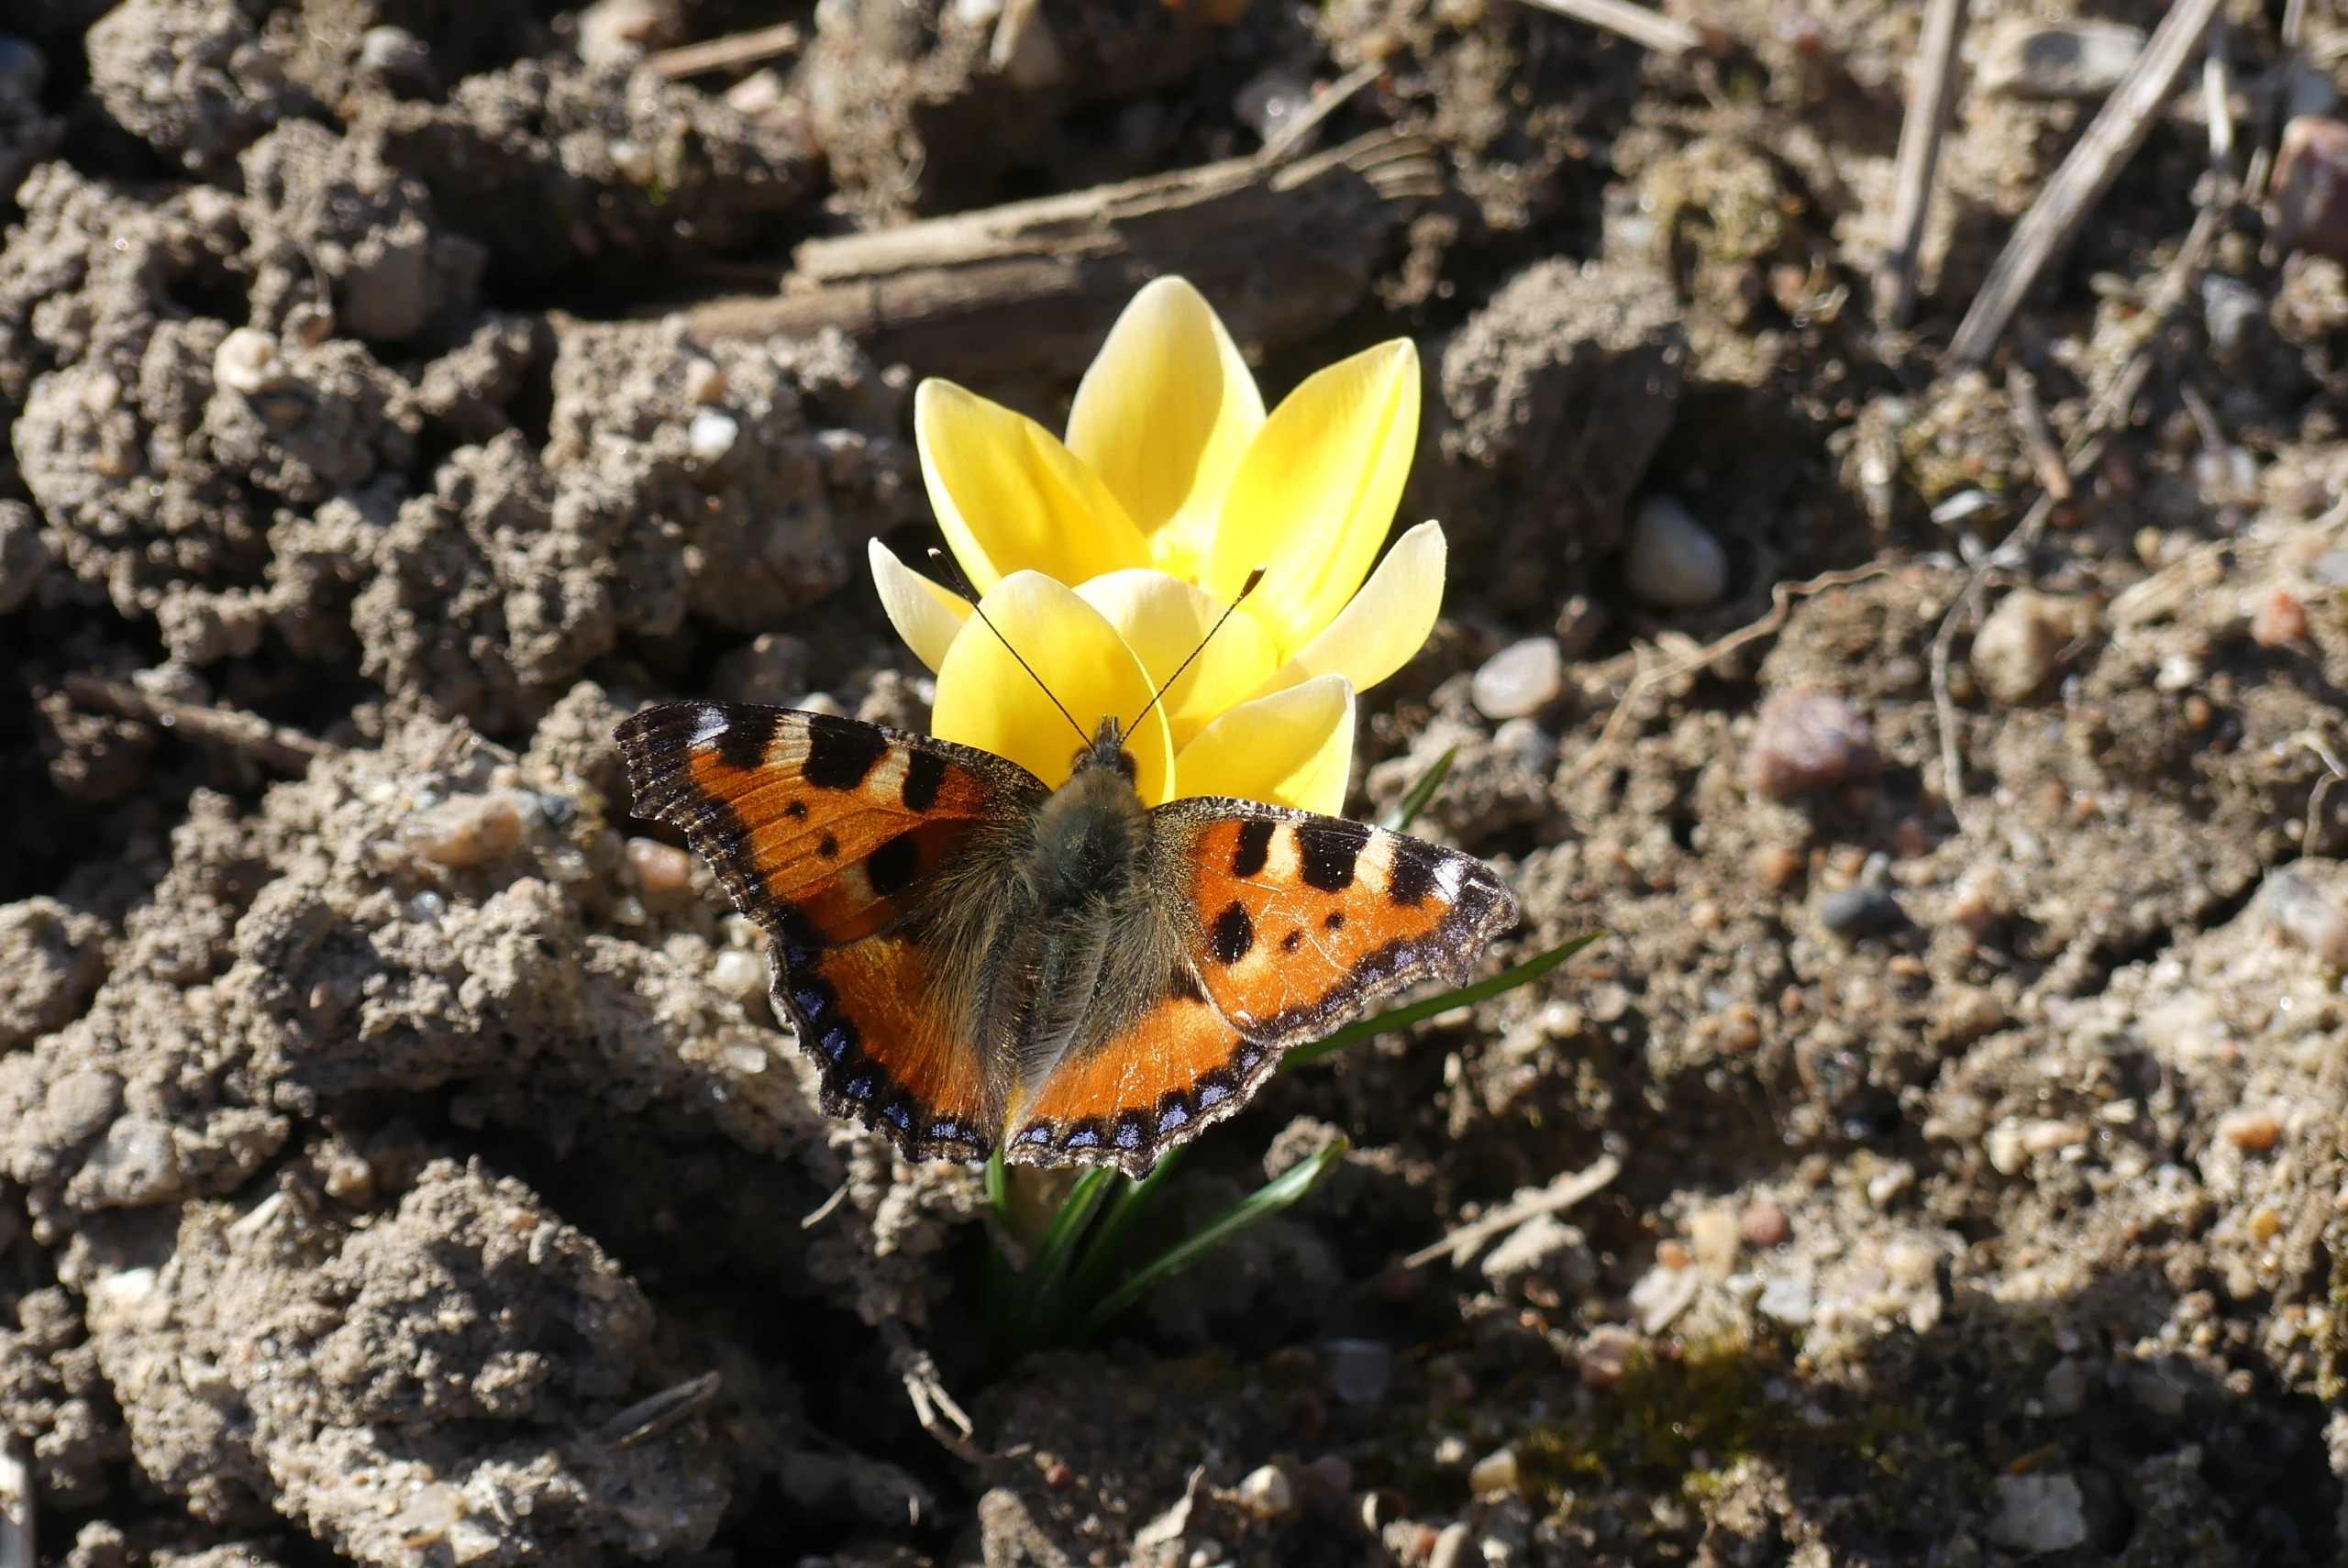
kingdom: Animalia
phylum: Arthropoda
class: Insecta
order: Lepidoptera
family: Nymphalidae
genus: Aglais
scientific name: Aglais urticae
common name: Nældens takvinge
